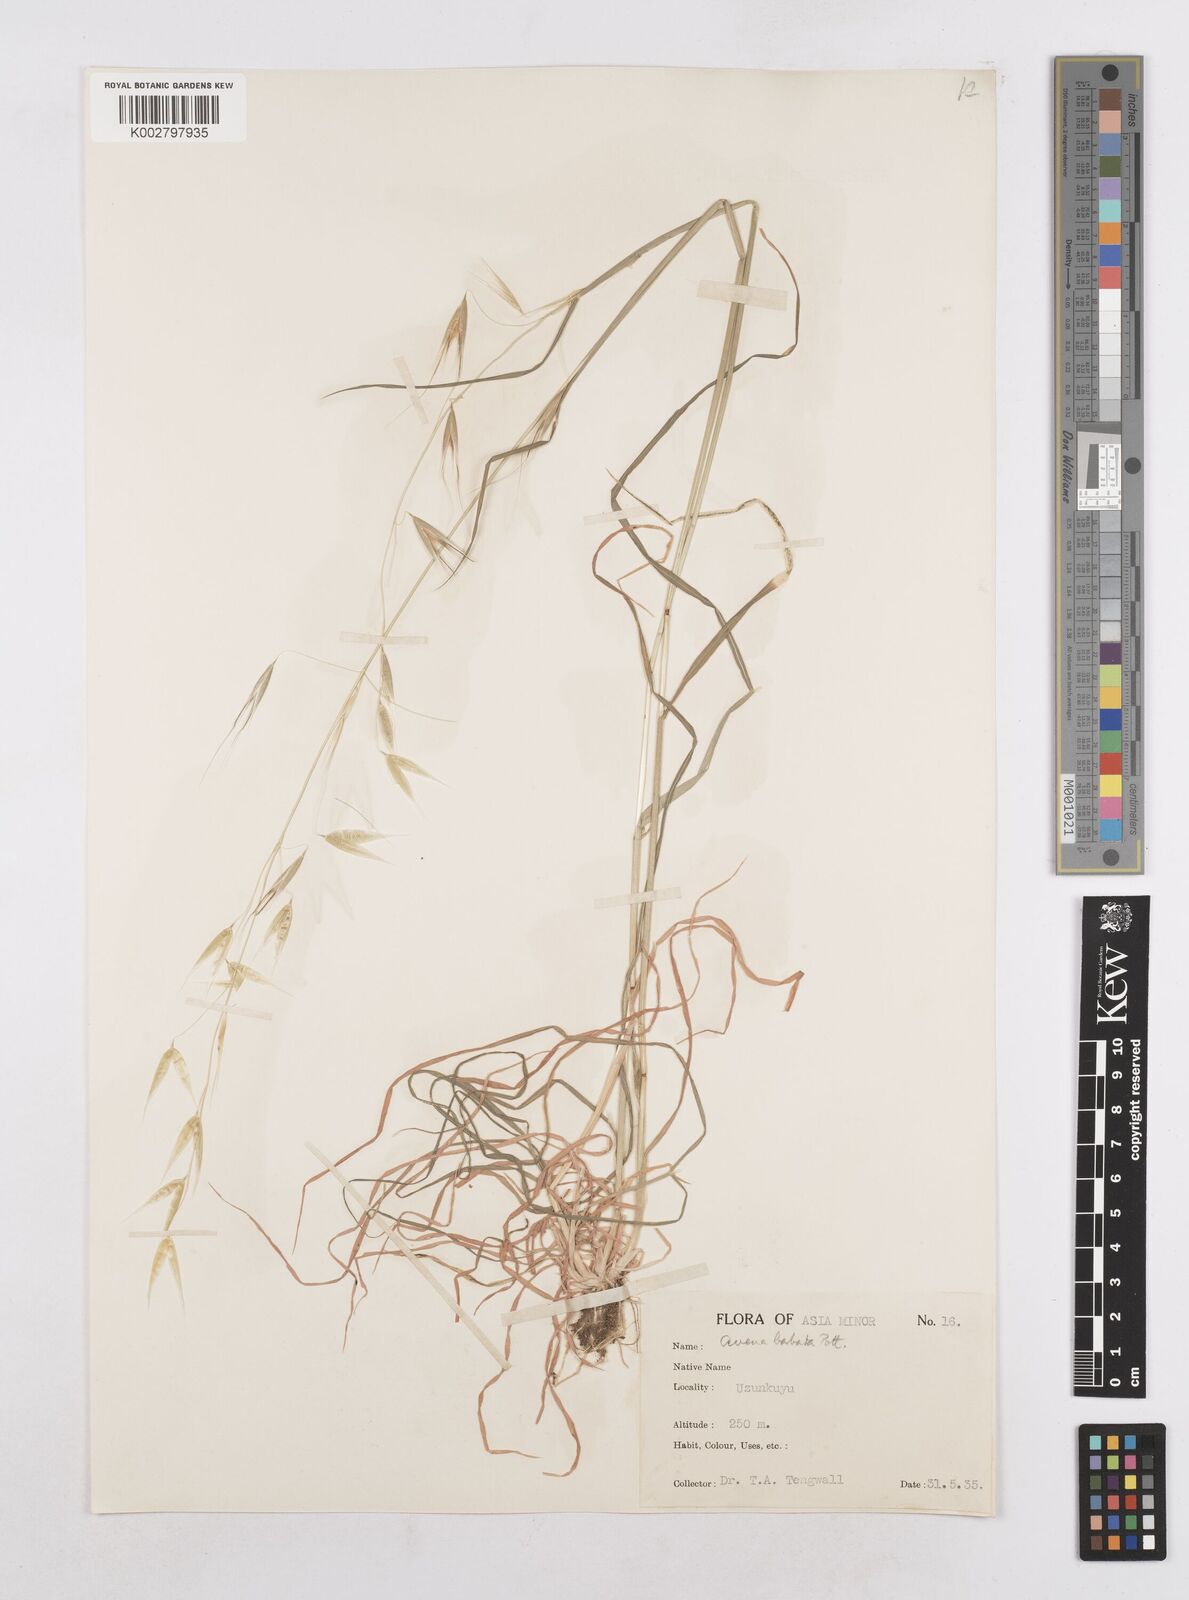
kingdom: Plantae
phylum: Tracheophyta
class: Liliopsida
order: Poales
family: Poaceae
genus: Avena
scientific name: Avena
